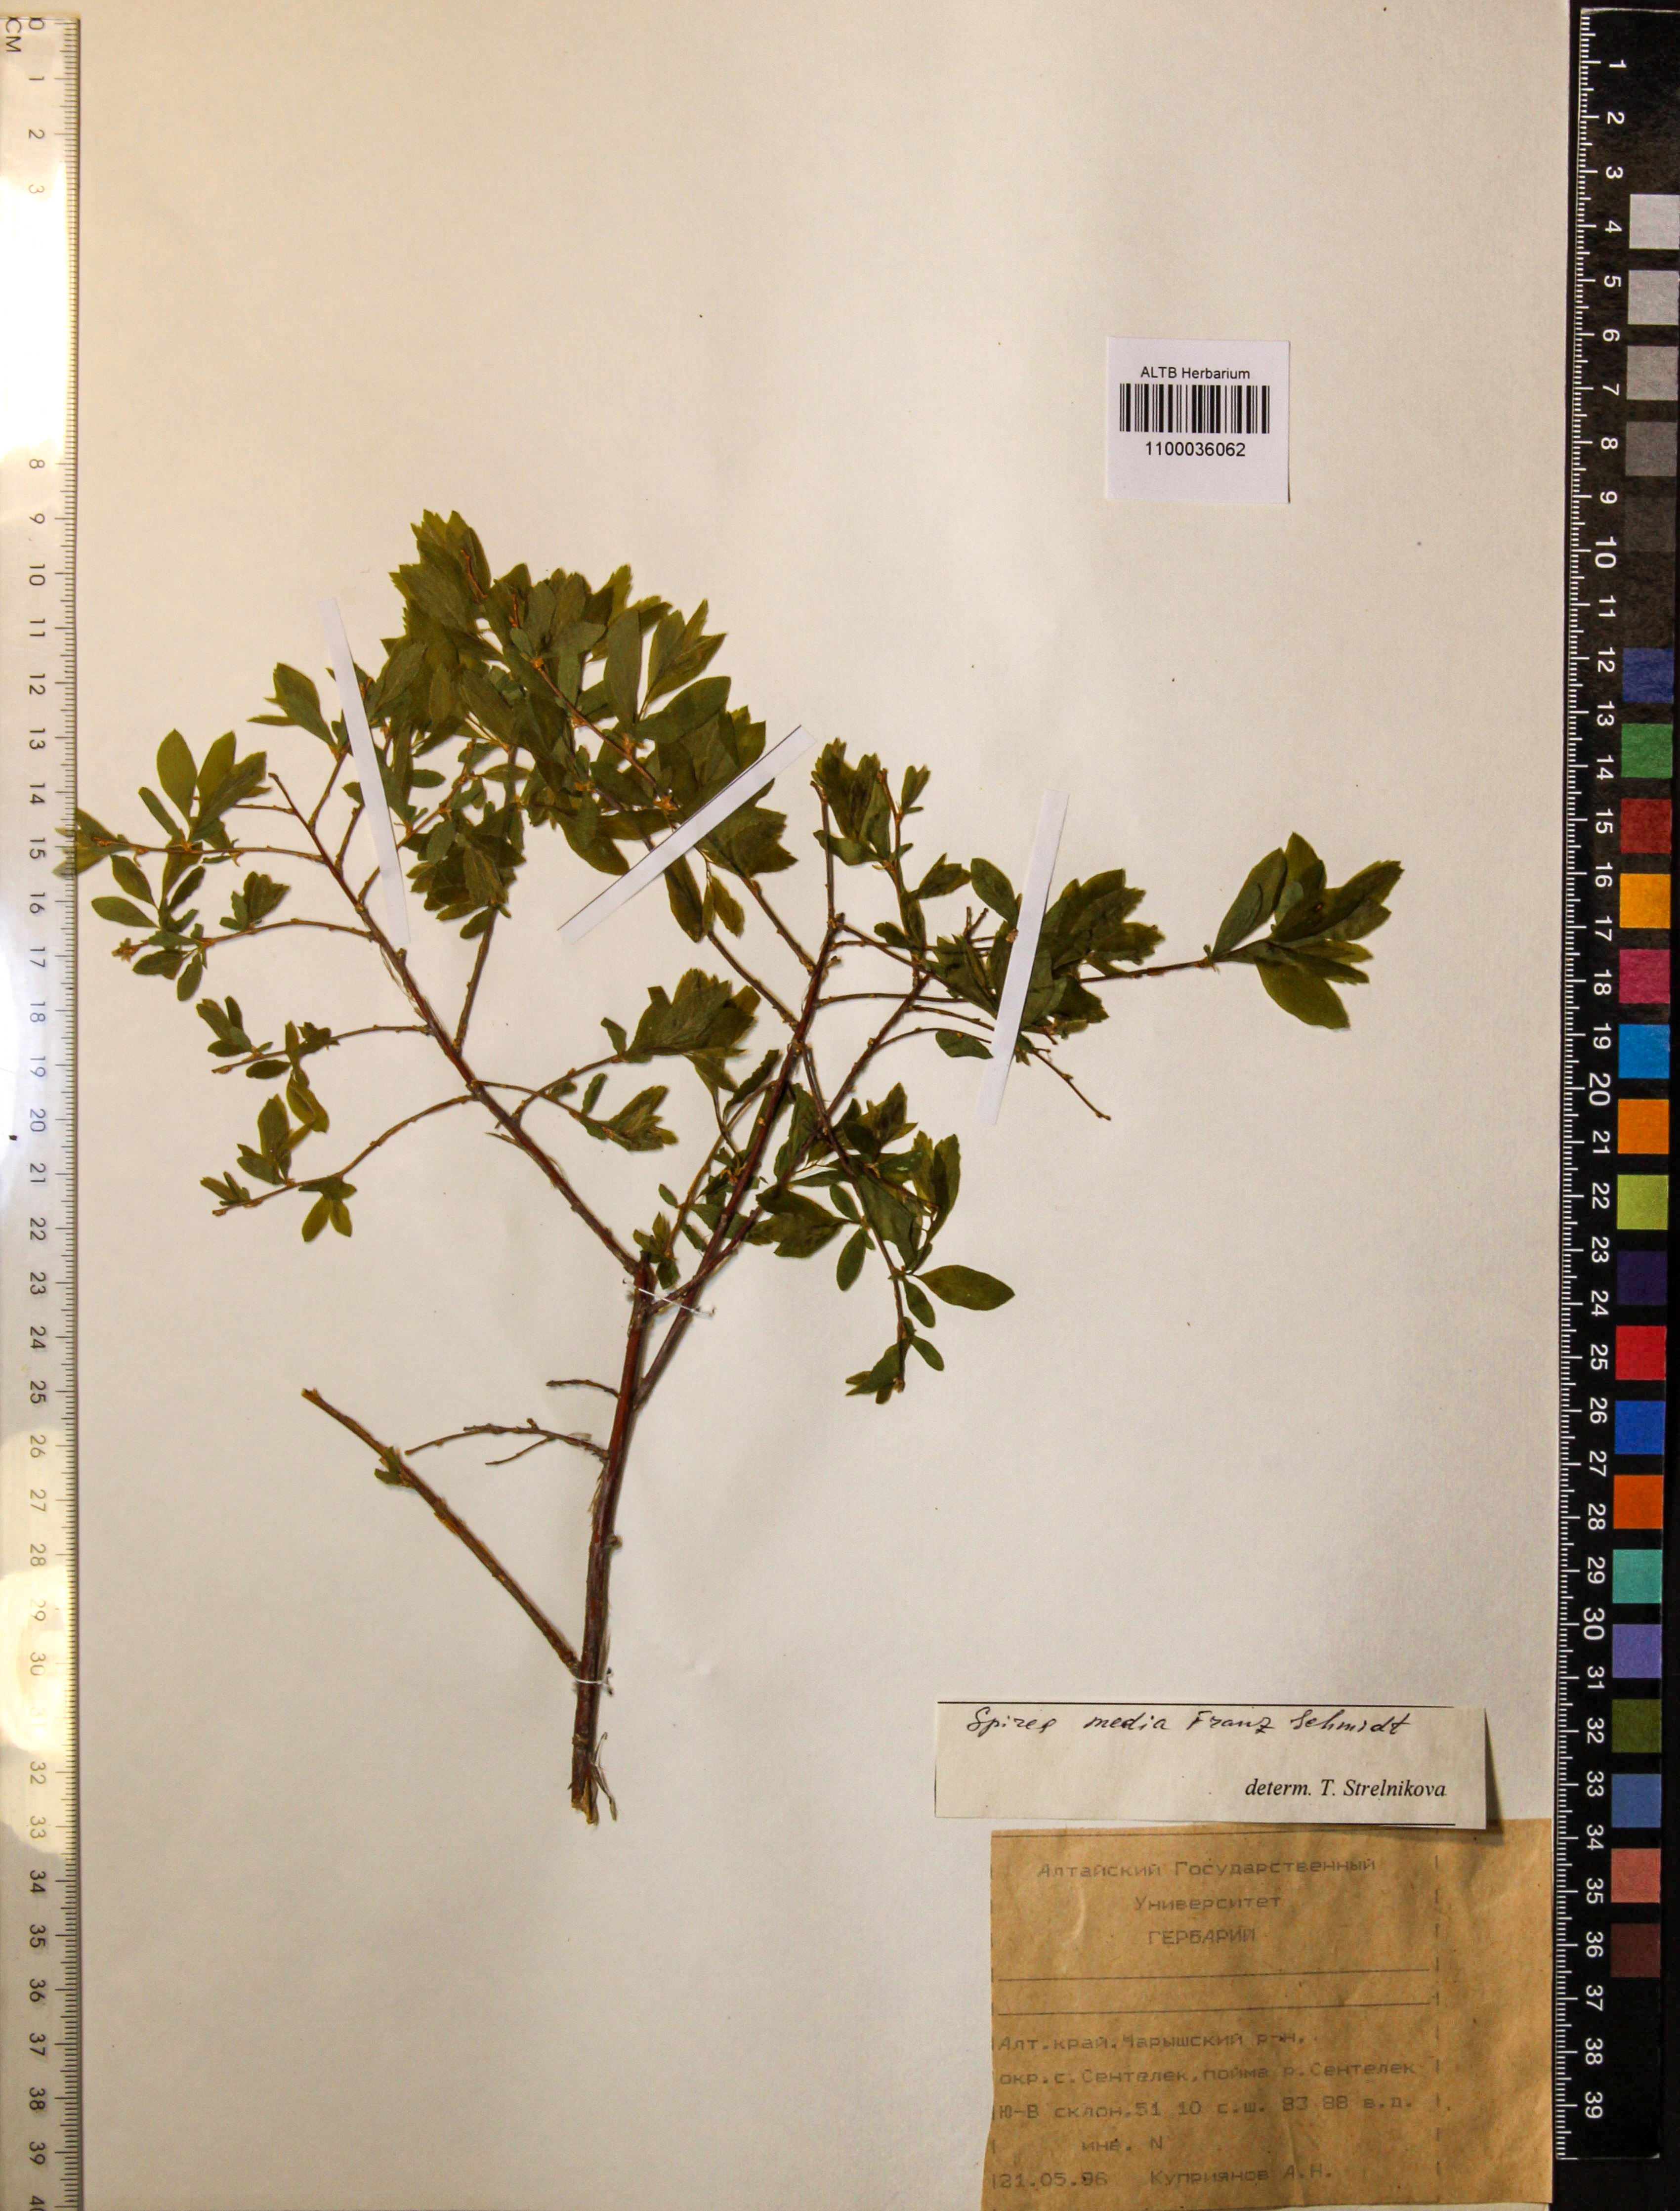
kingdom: Plantae
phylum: Tracheophyta
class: Magnoliopsida
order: Rosales
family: Rosaceae
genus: Spiraea
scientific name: Spiraea media
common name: Russian spiraea
